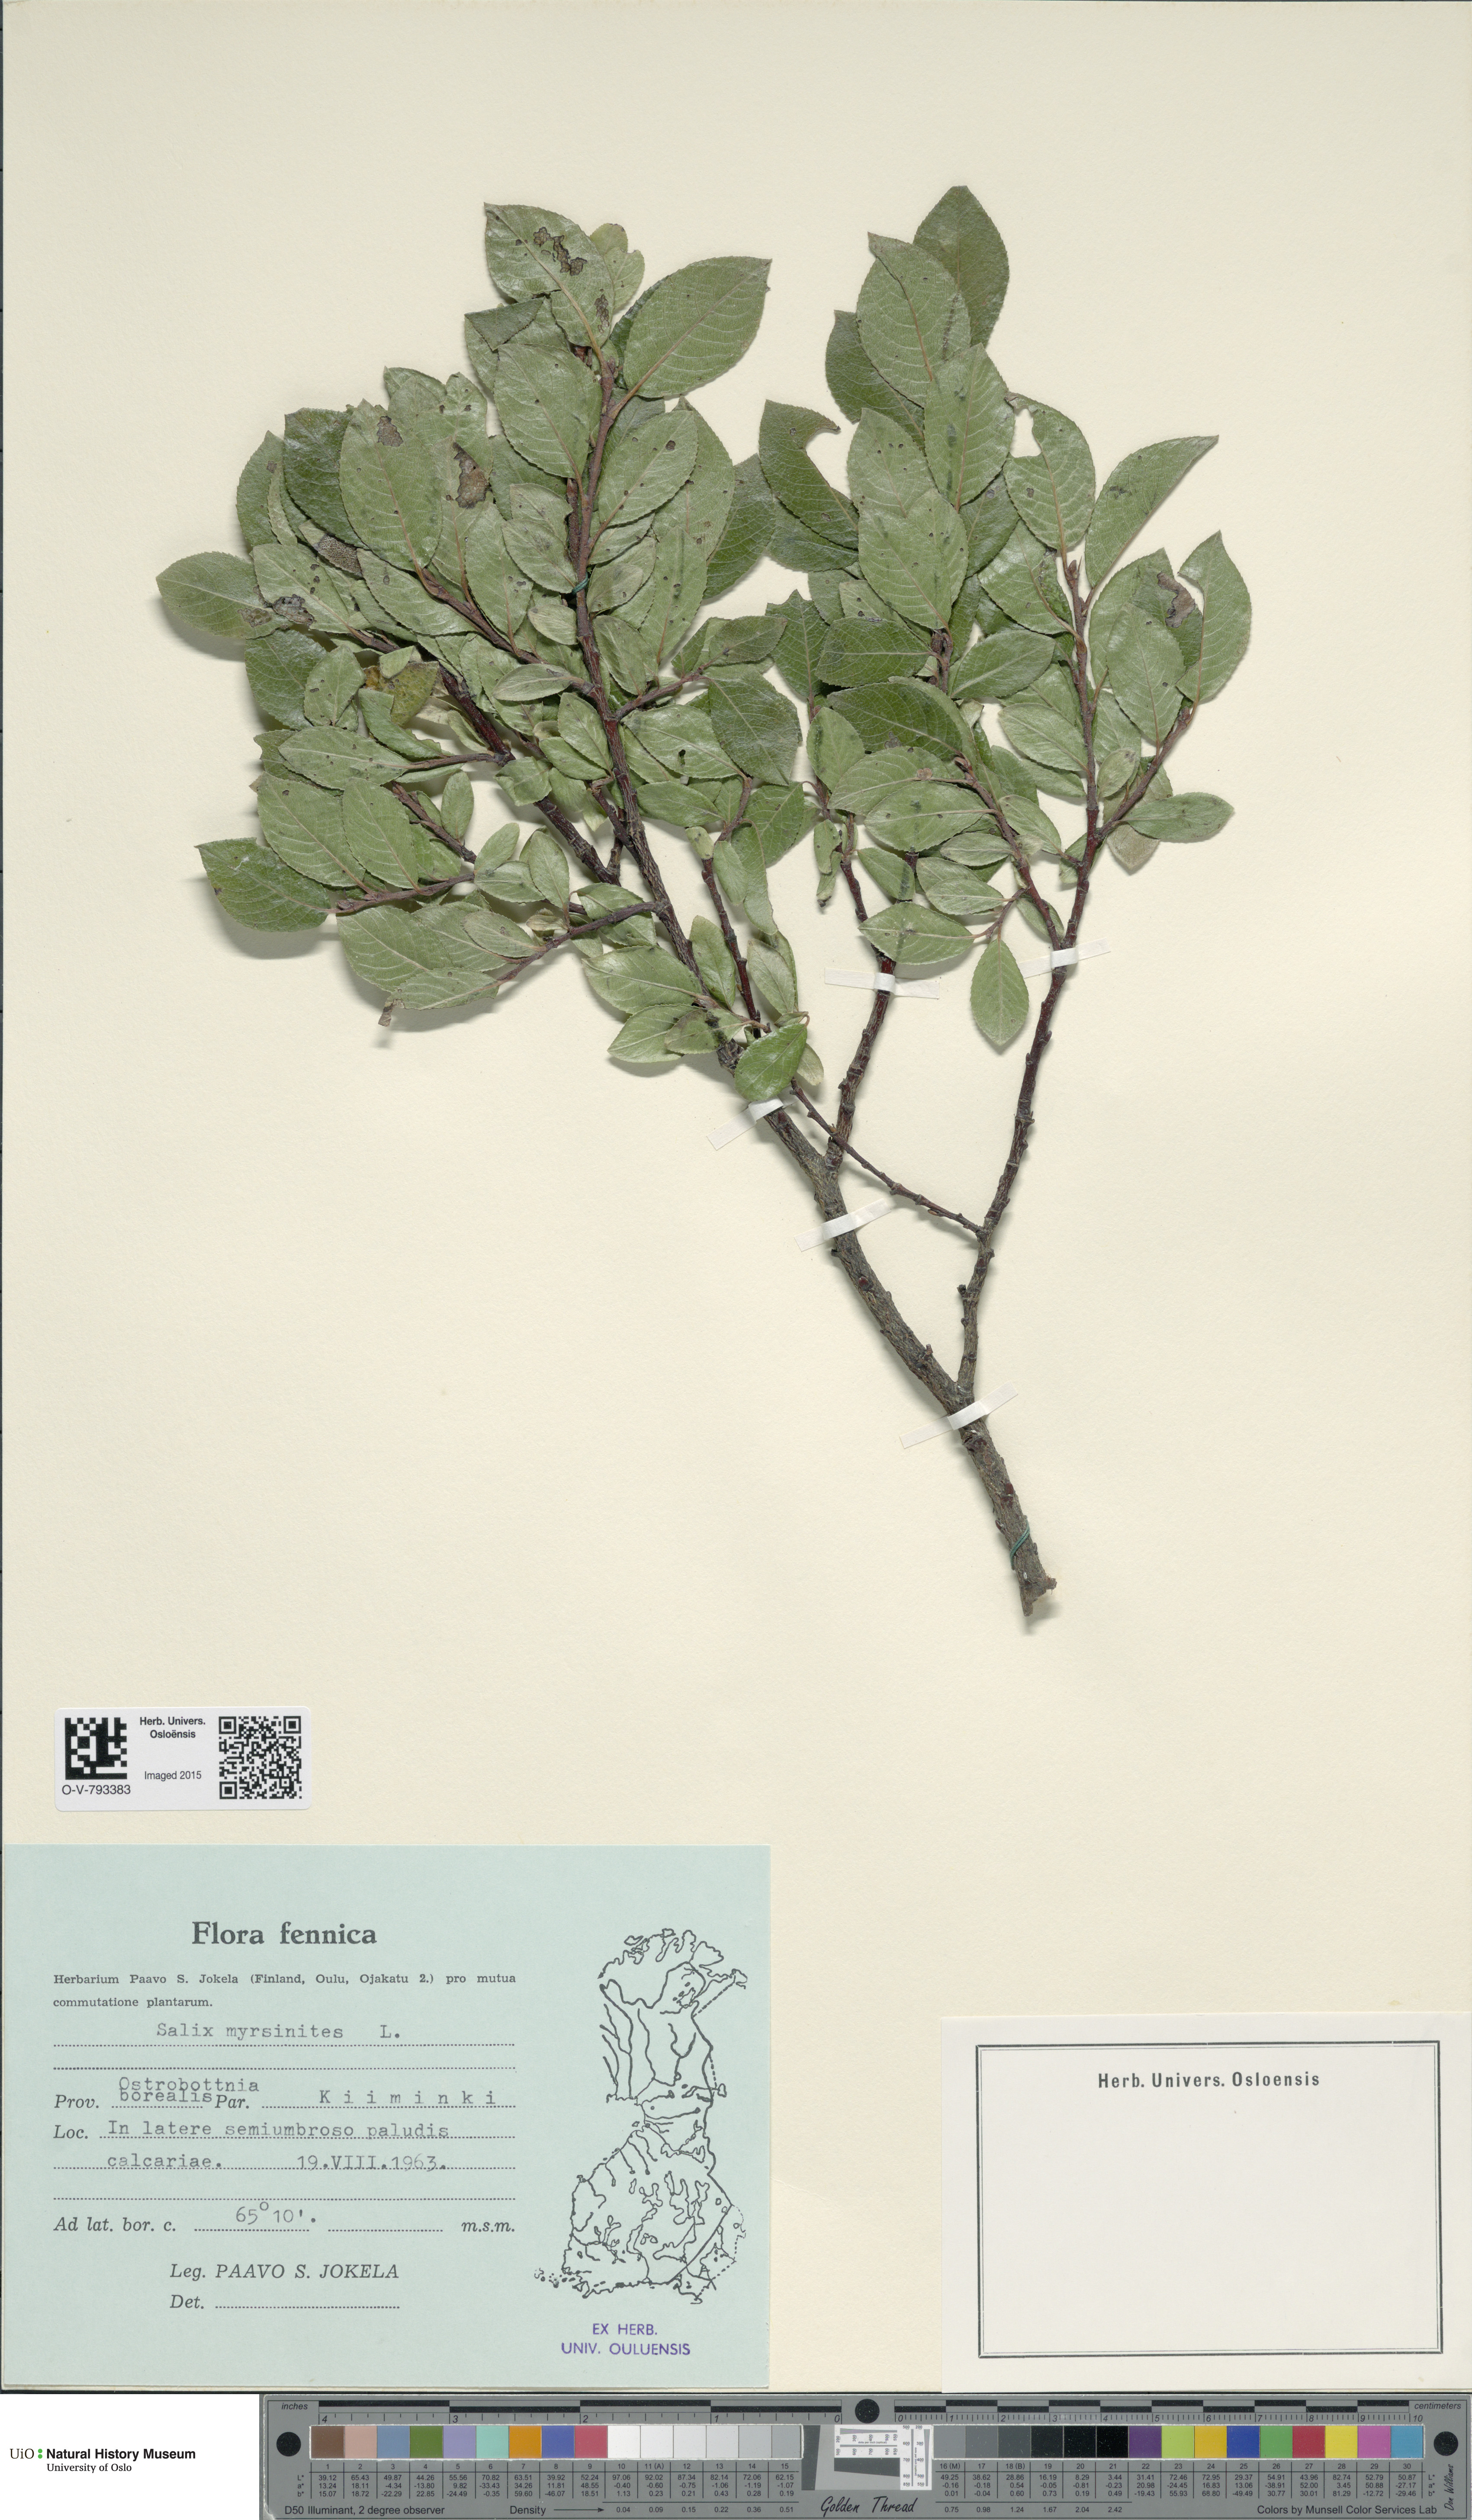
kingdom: Plantae
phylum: Tracheophyta
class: Magnoliopsida
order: Malpighiales
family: Salicaceae
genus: Salix
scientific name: Salix myrsinites
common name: Myrtle willow
